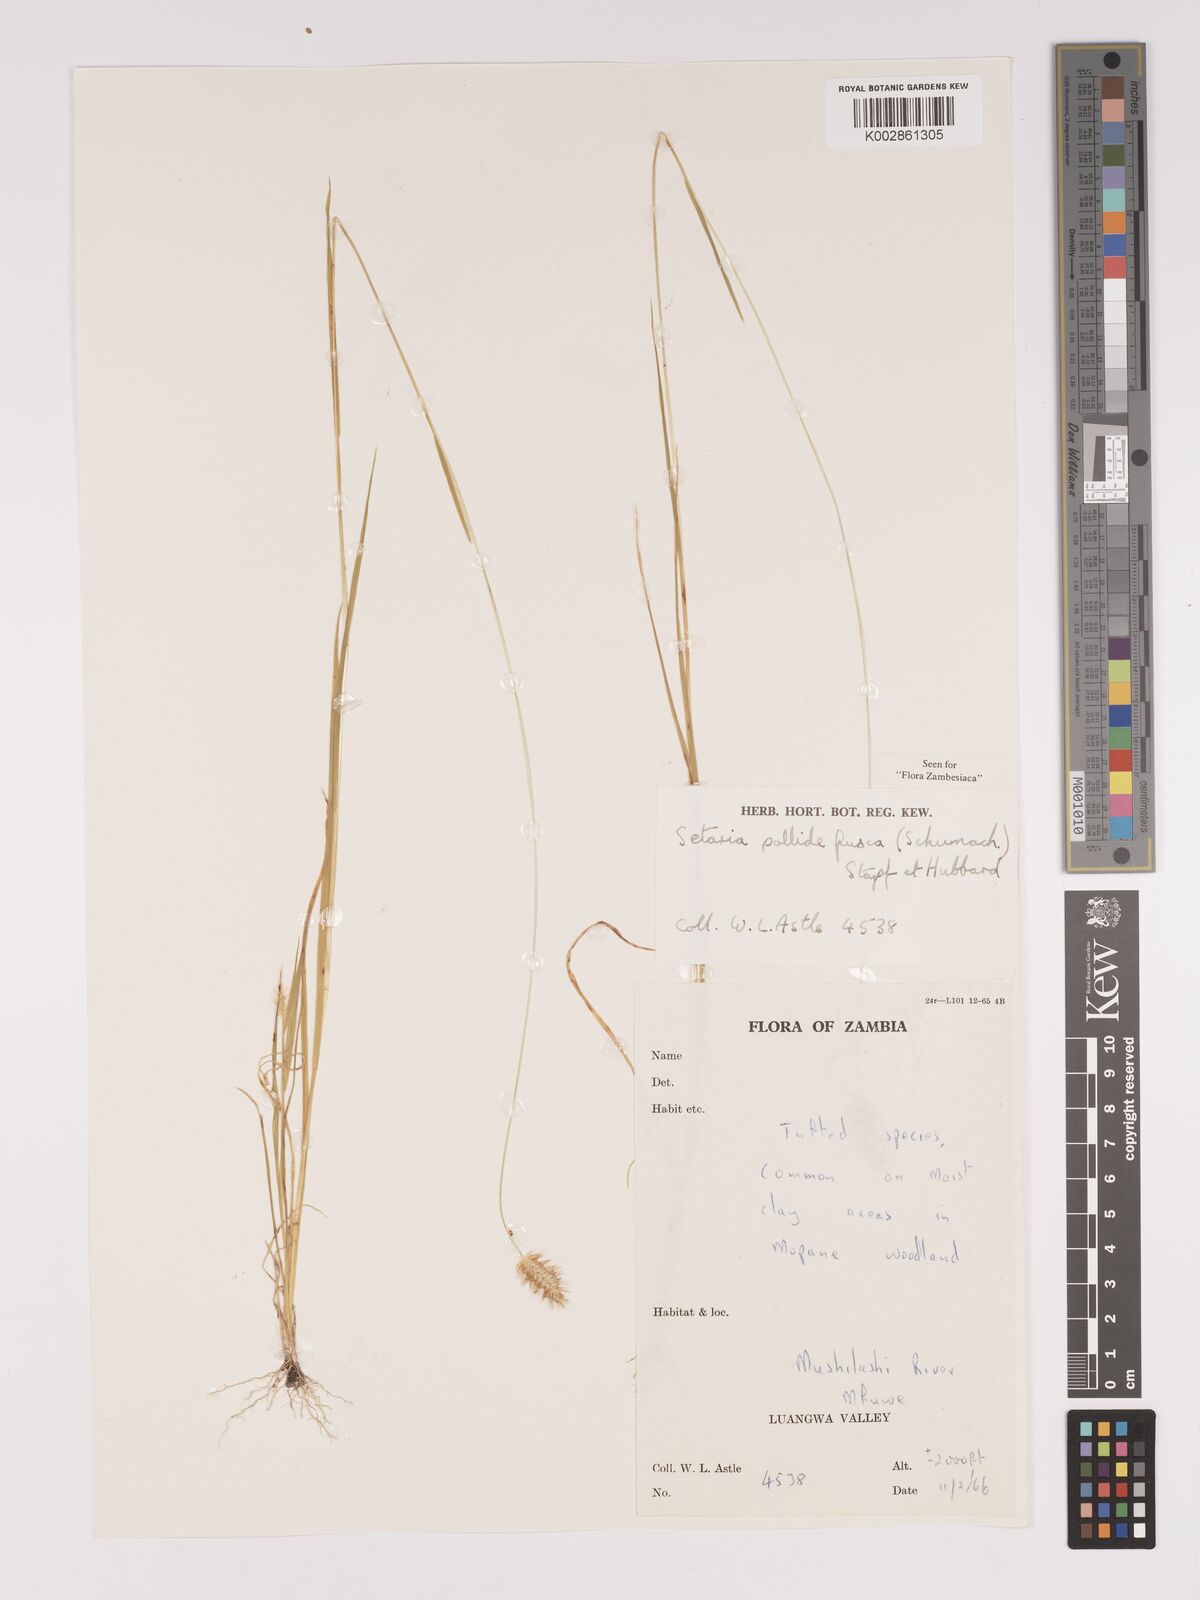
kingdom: Plantae
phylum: Tracheophyta
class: Liliopsida
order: Poales
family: Poaceae
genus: Setaria
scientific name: Setaria pumila
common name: Yellow bristle-grass
